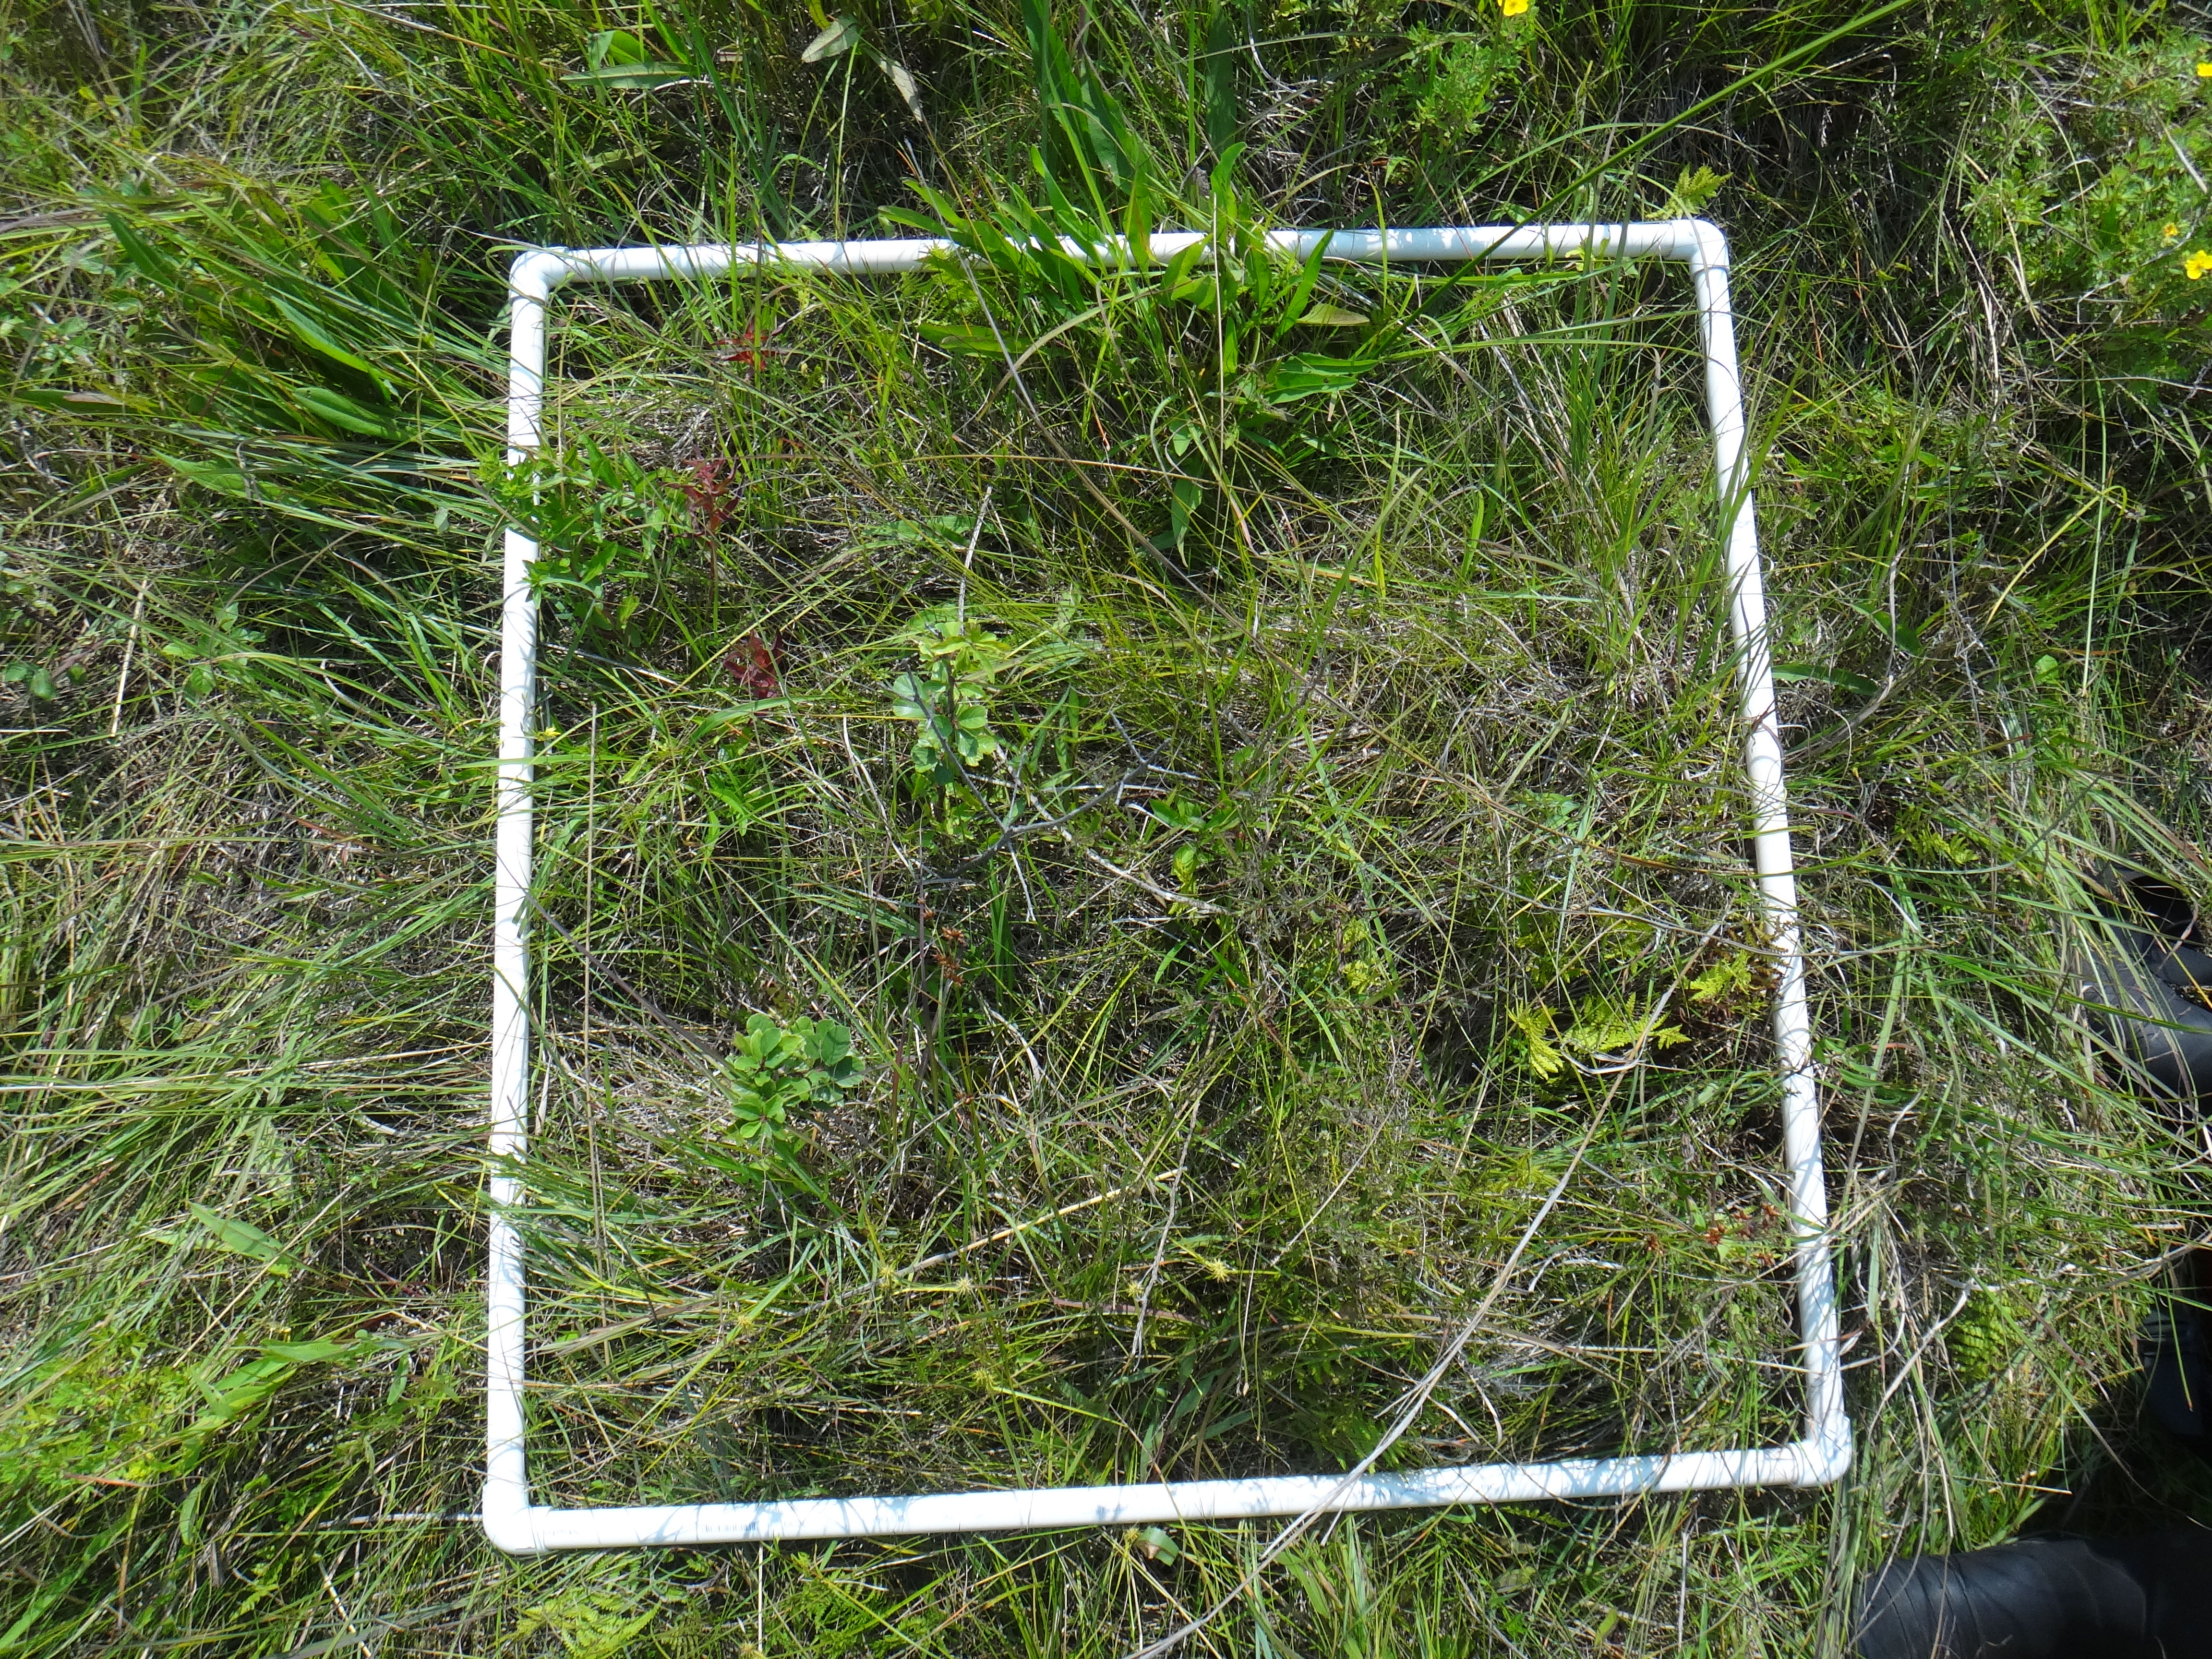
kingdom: Plantae
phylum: Tracheophyta
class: Magnoliopsida
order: Asterales
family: Asteraceae
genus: Cirsium
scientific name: Cirsium muticum
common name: Dunce-nettle
